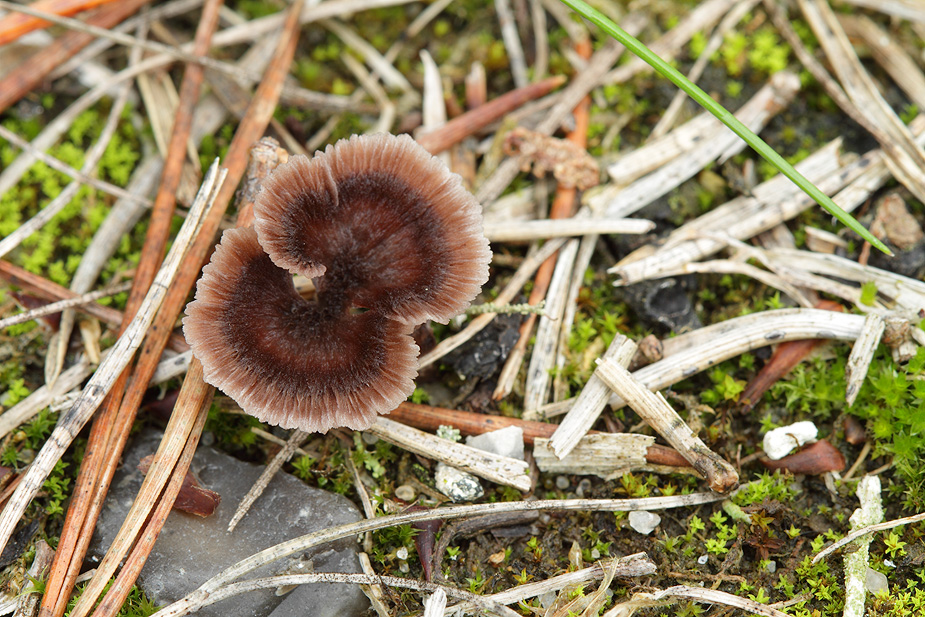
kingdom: Fungi
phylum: Basidiomycota
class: Agaricomycetes
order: Thelephorales
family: Thelephoraceae
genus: Thelephora
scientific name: Thelephora caryophyllea
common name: tragt-frynsesvamp
